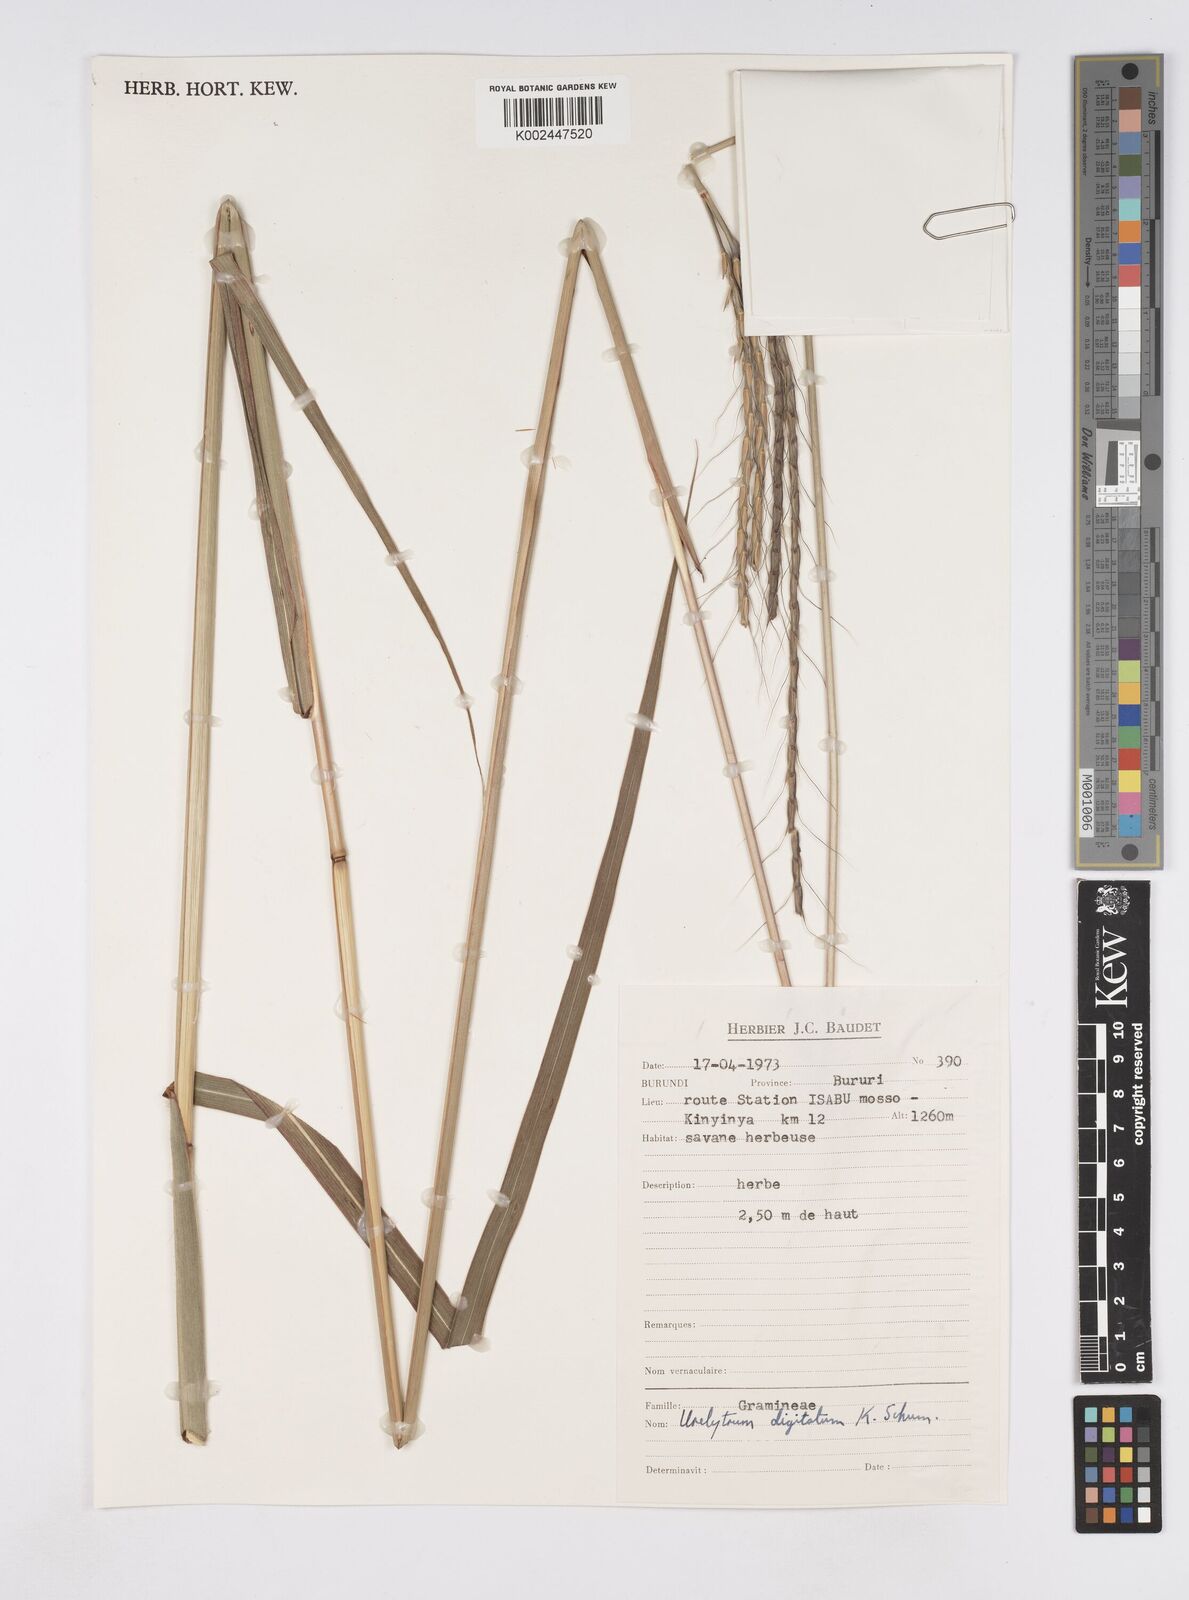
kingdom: Plantae
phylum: Tracheophyta
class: Liliopsida
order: Poales
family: Poaceae
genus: Urelytrum
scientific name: Urelytrum digitatum
